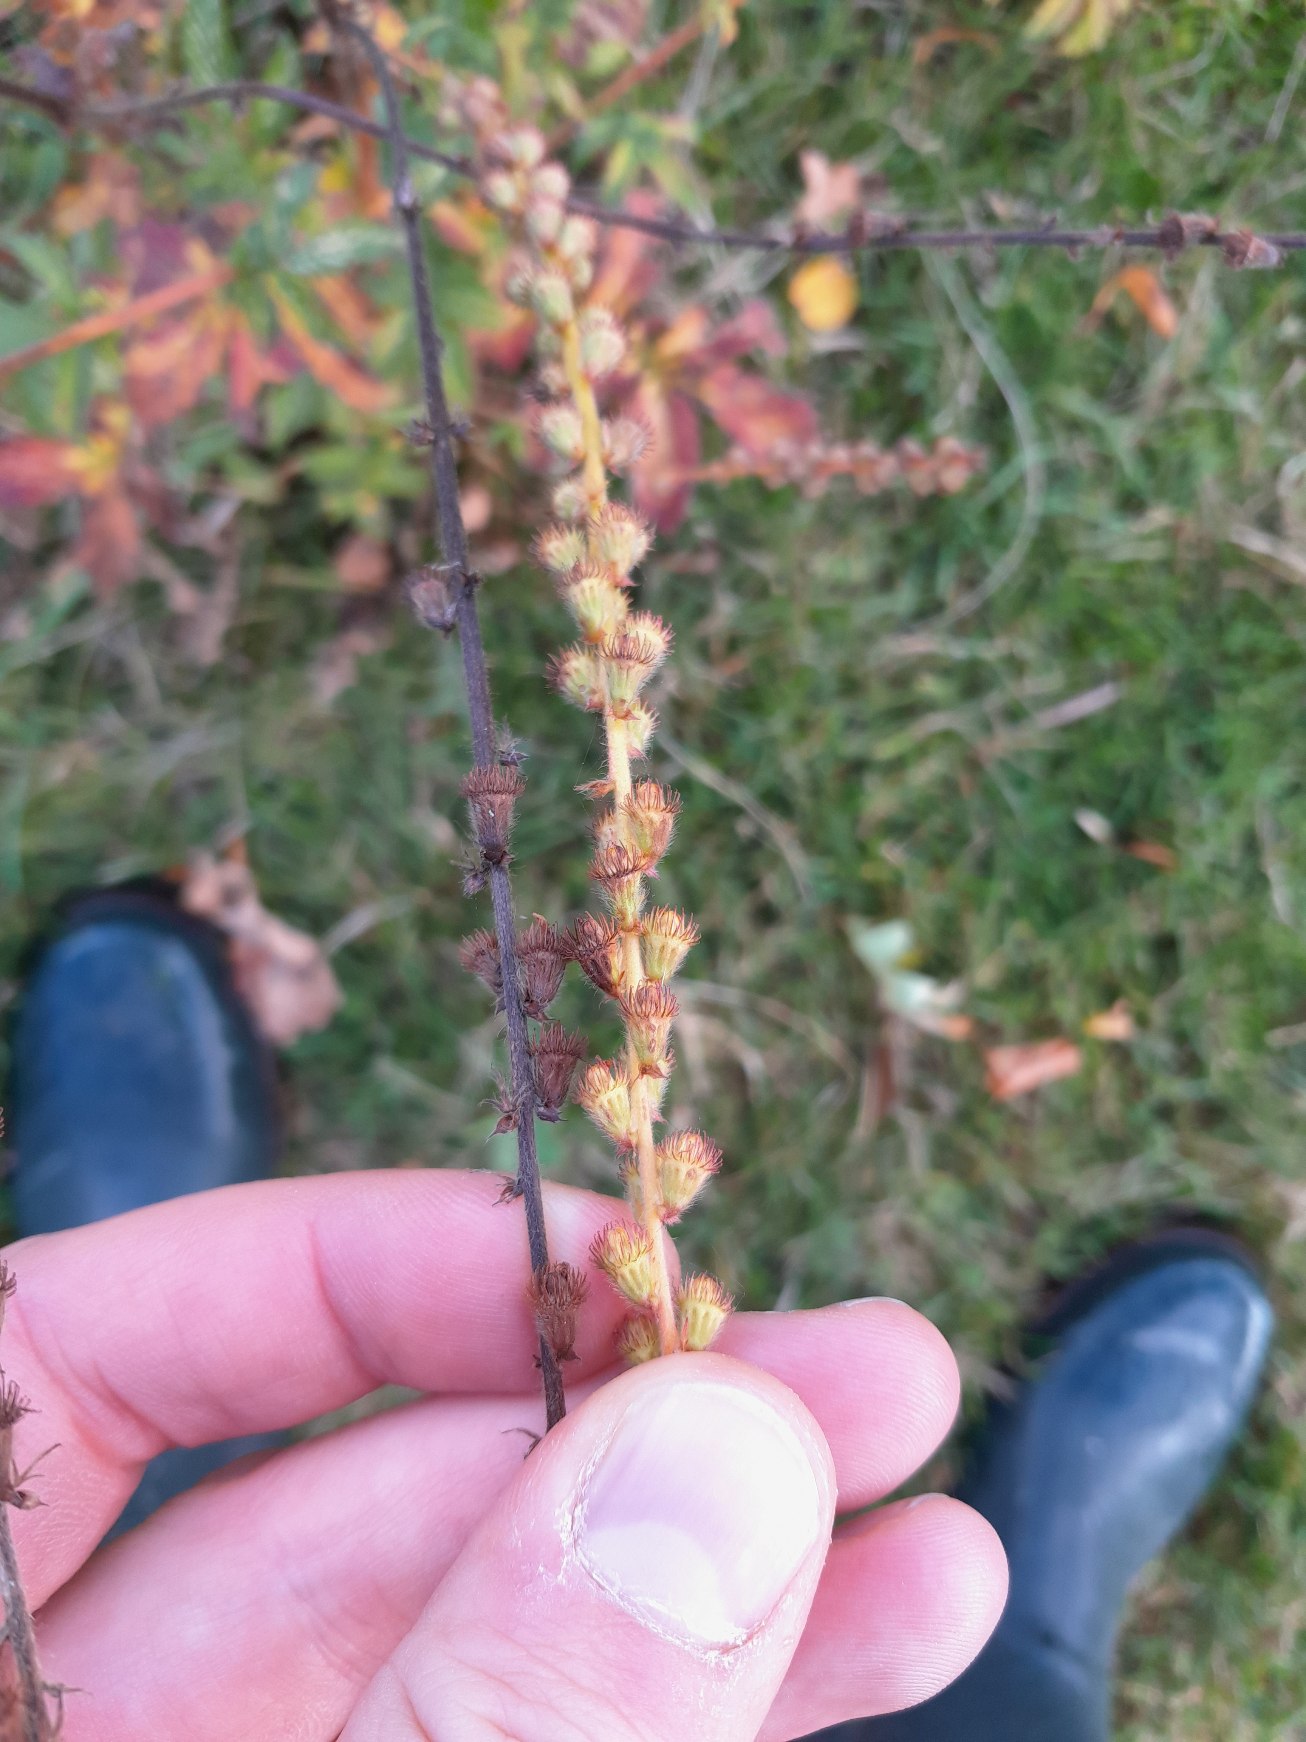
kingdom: Plantae
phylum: Tracheophyta
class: Magnoliopsida
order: Rosales
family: Rosaceae
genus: Agrimonia
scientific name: Agrimonia eupatoria
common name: Almindelig agermåne
